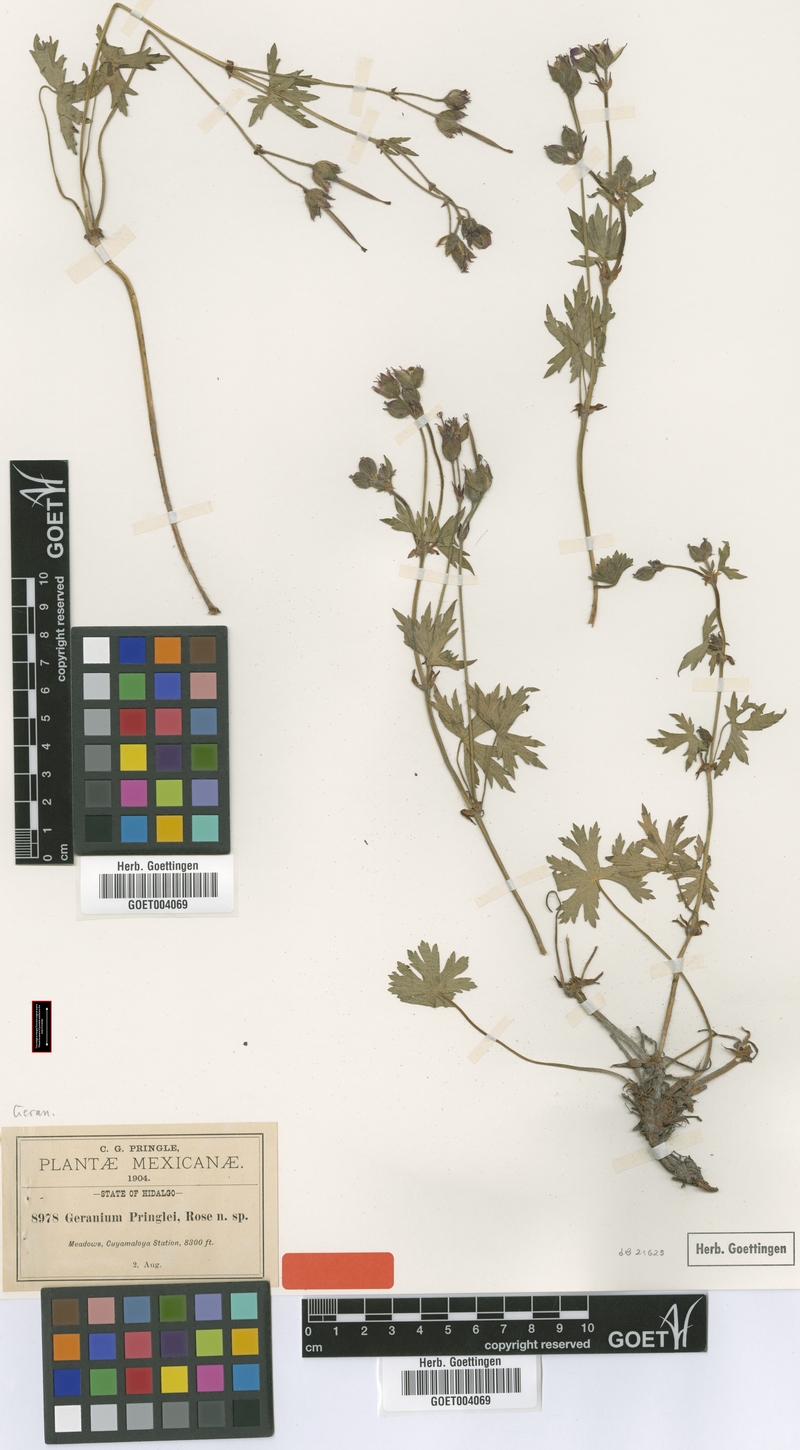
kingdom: Plantae
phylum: Tracheophyta
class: Magnoliopsida
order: Geraniales
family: Geraniaceae
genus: Geranium
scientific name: Geranium pringlei
